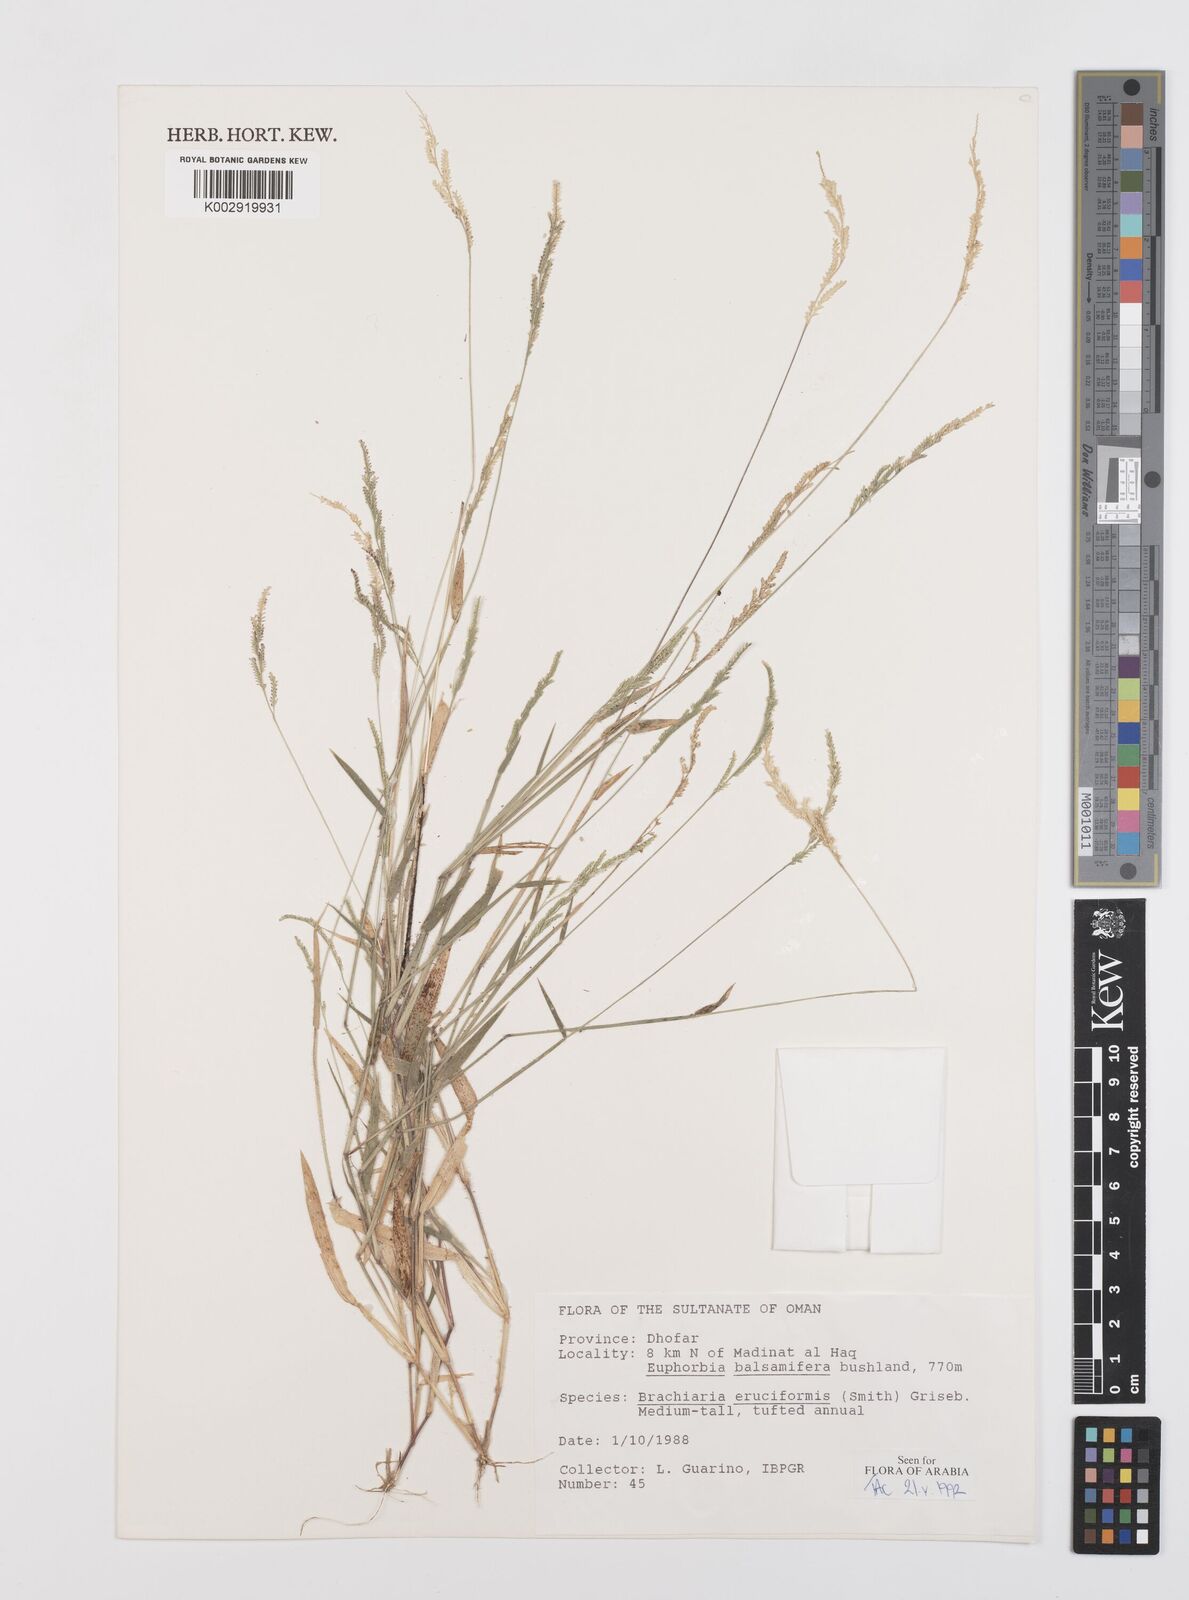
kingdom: Plantae
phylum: Tracheophyta
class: Liliopsida
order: Poales
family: Poaceae
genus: Moorochloa
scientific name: Moorochloa eruciformis
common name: Sweet signalgrass
